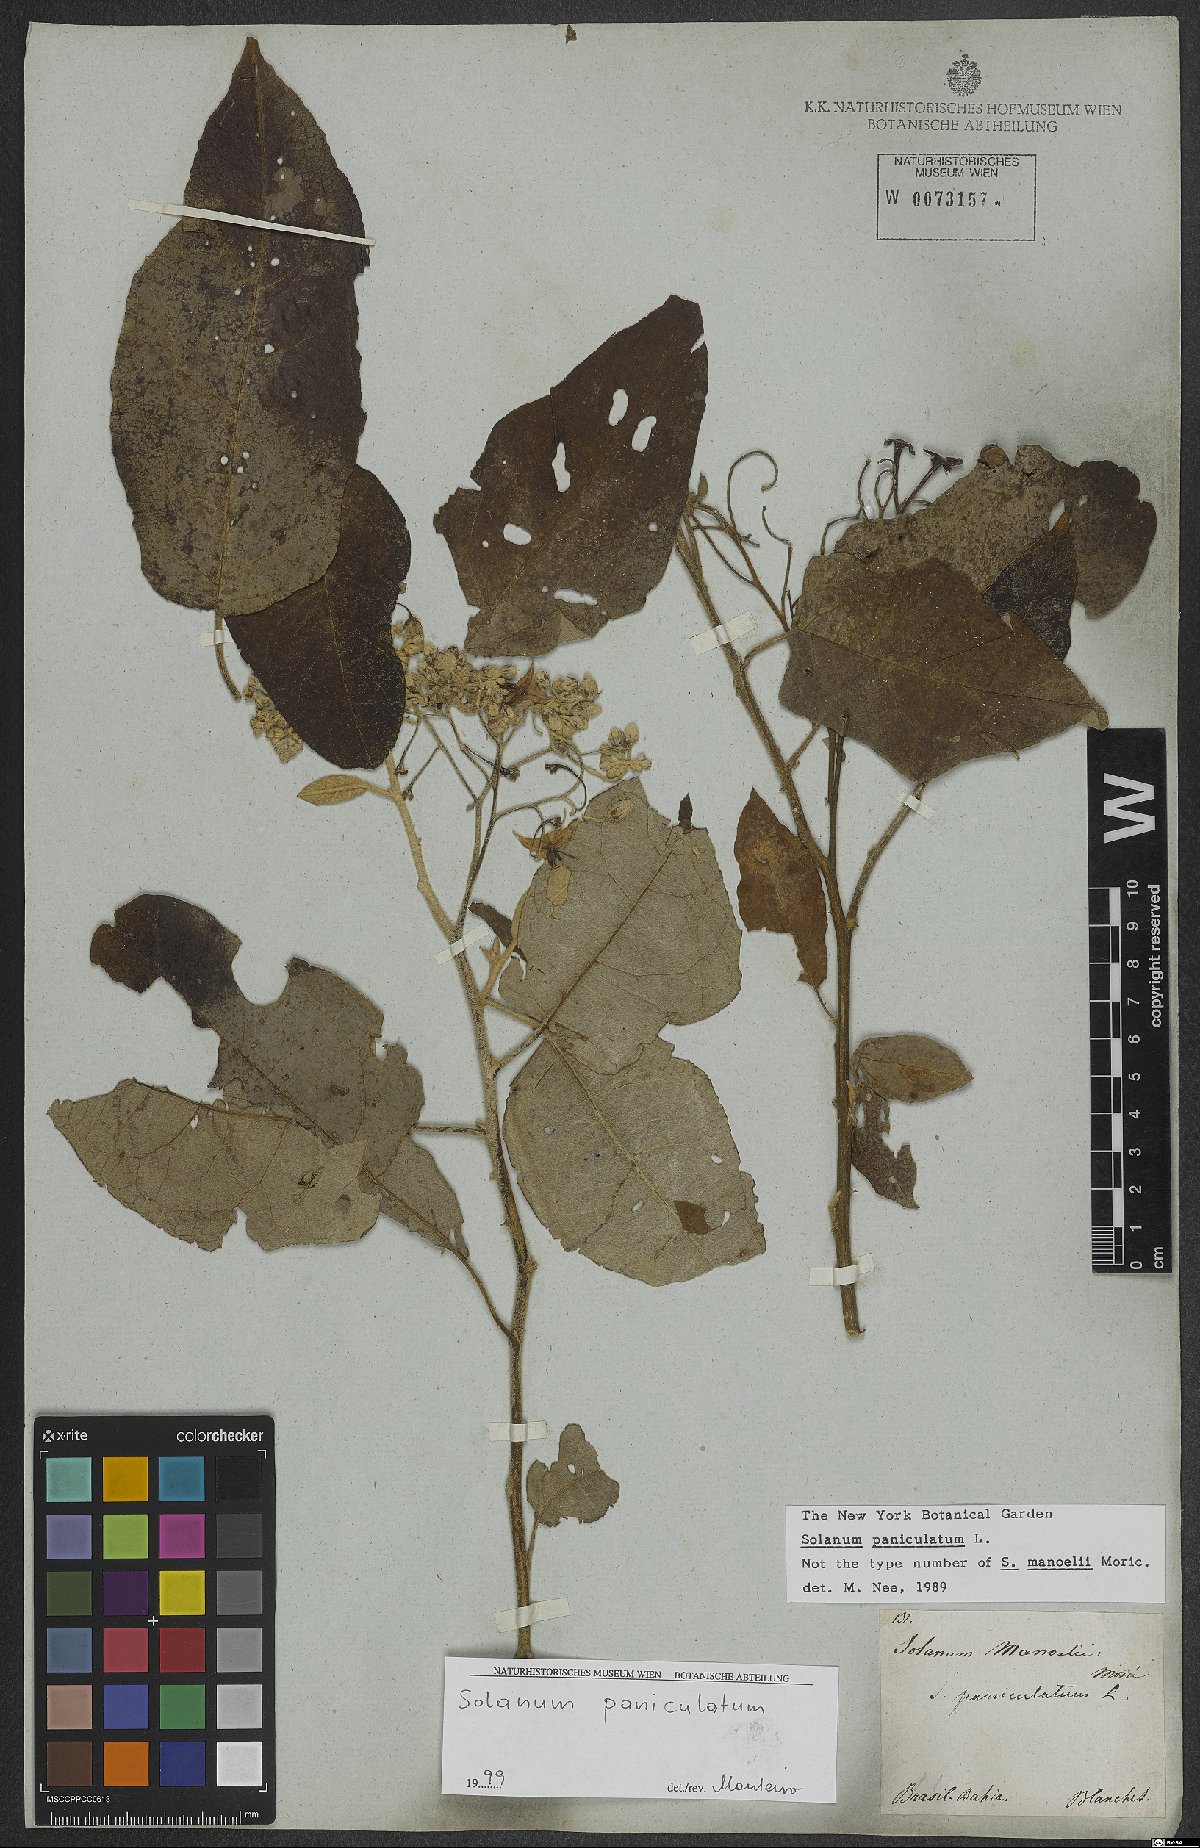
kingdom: Plantae
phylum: Tracheophyta
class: Magnoliopsida
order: Solanales
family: Solanaceae
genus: Solanum
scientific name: Solanum paniculatum
